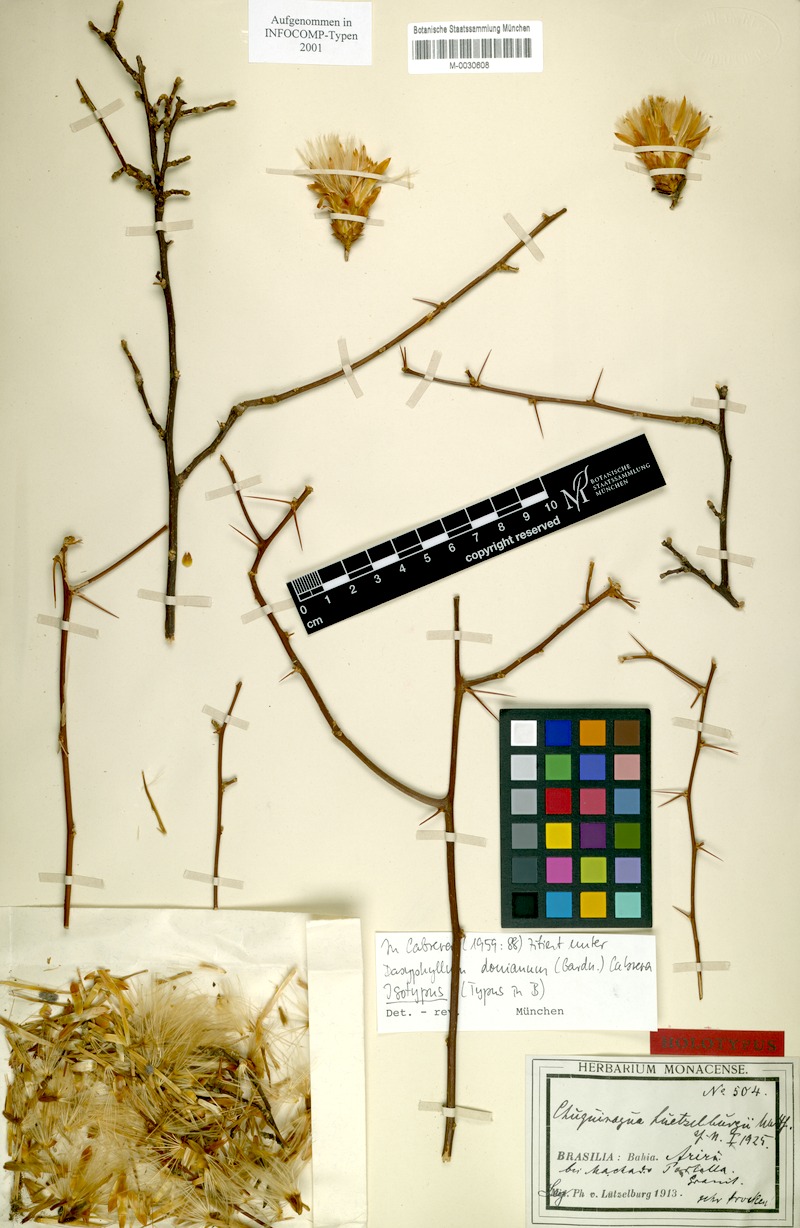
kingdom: Plantae
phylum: Tracheophyta
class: Magnoliopsida
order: Asterales
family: Asteraceae
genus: Dasyphyllum
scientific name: Dasyphyllum donianum
